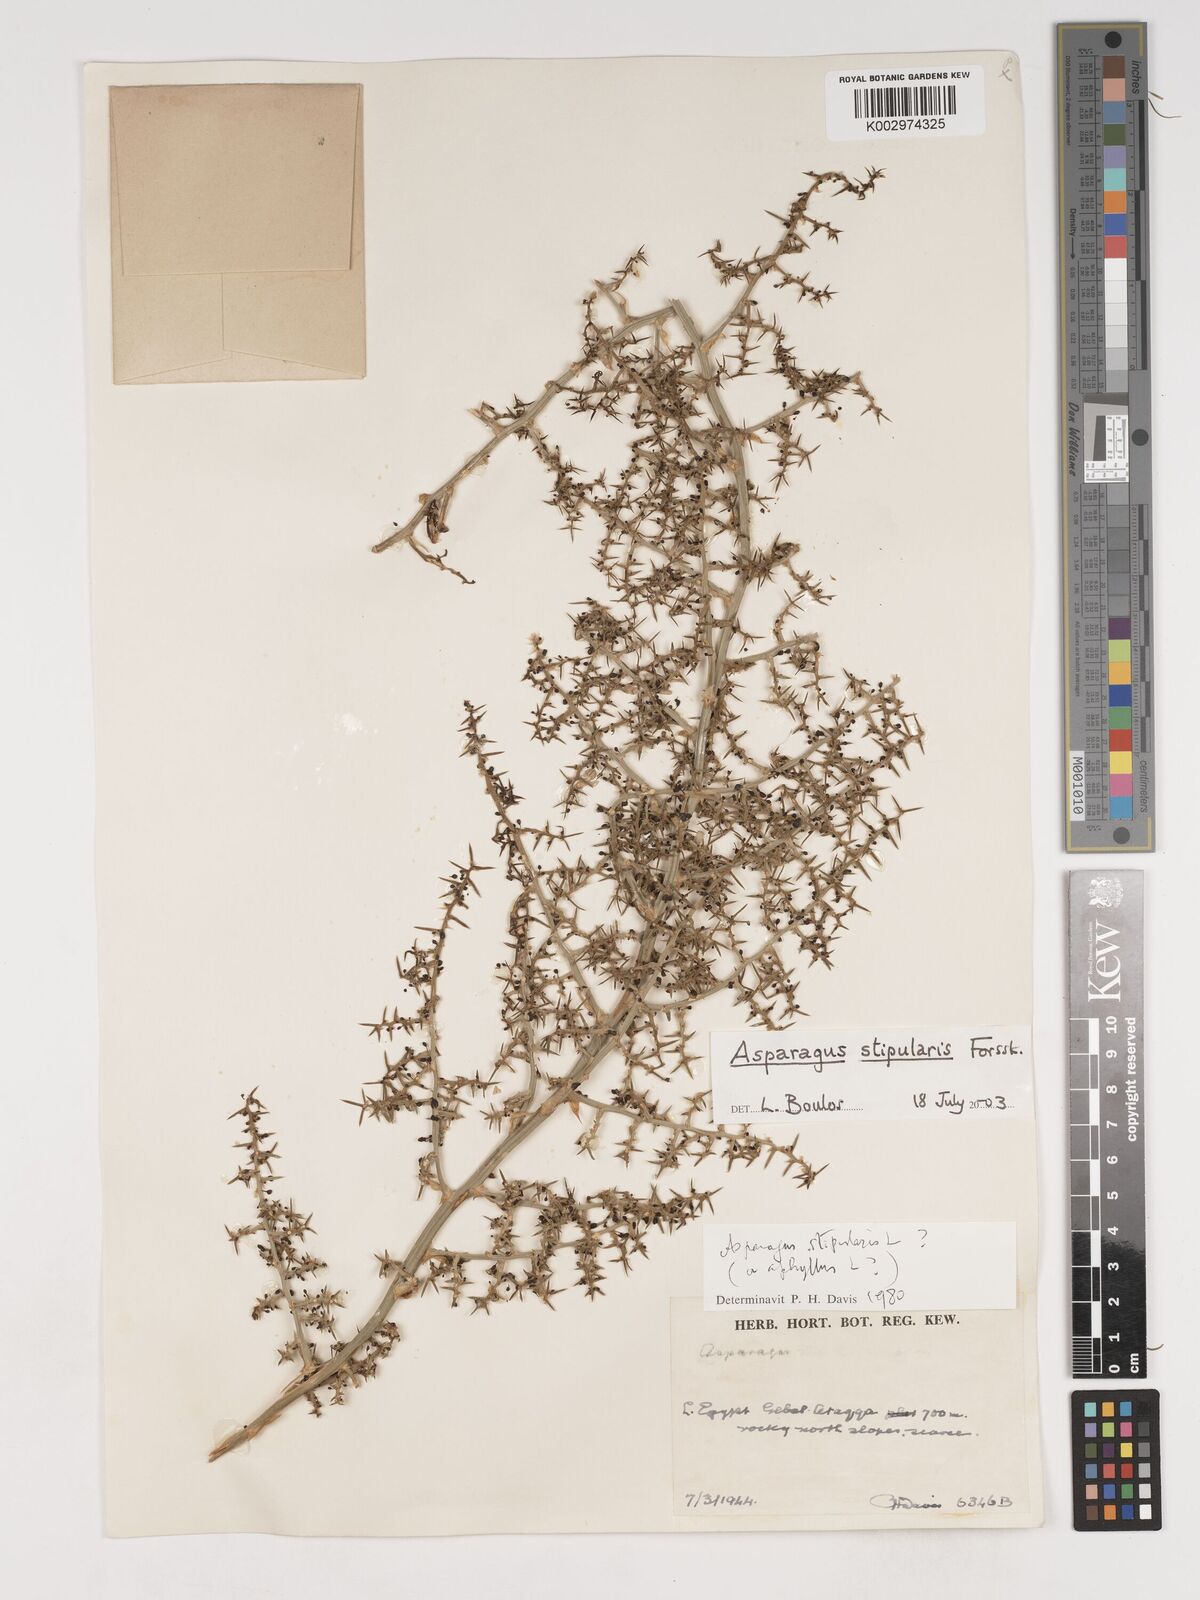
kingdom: Plantae
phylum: Tracheophyta
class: Liliopsida
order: Asparagales
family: Asparagaceae
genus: Asparagus
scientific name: Asparagus aphyllus
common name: Mediterranean asparagus
